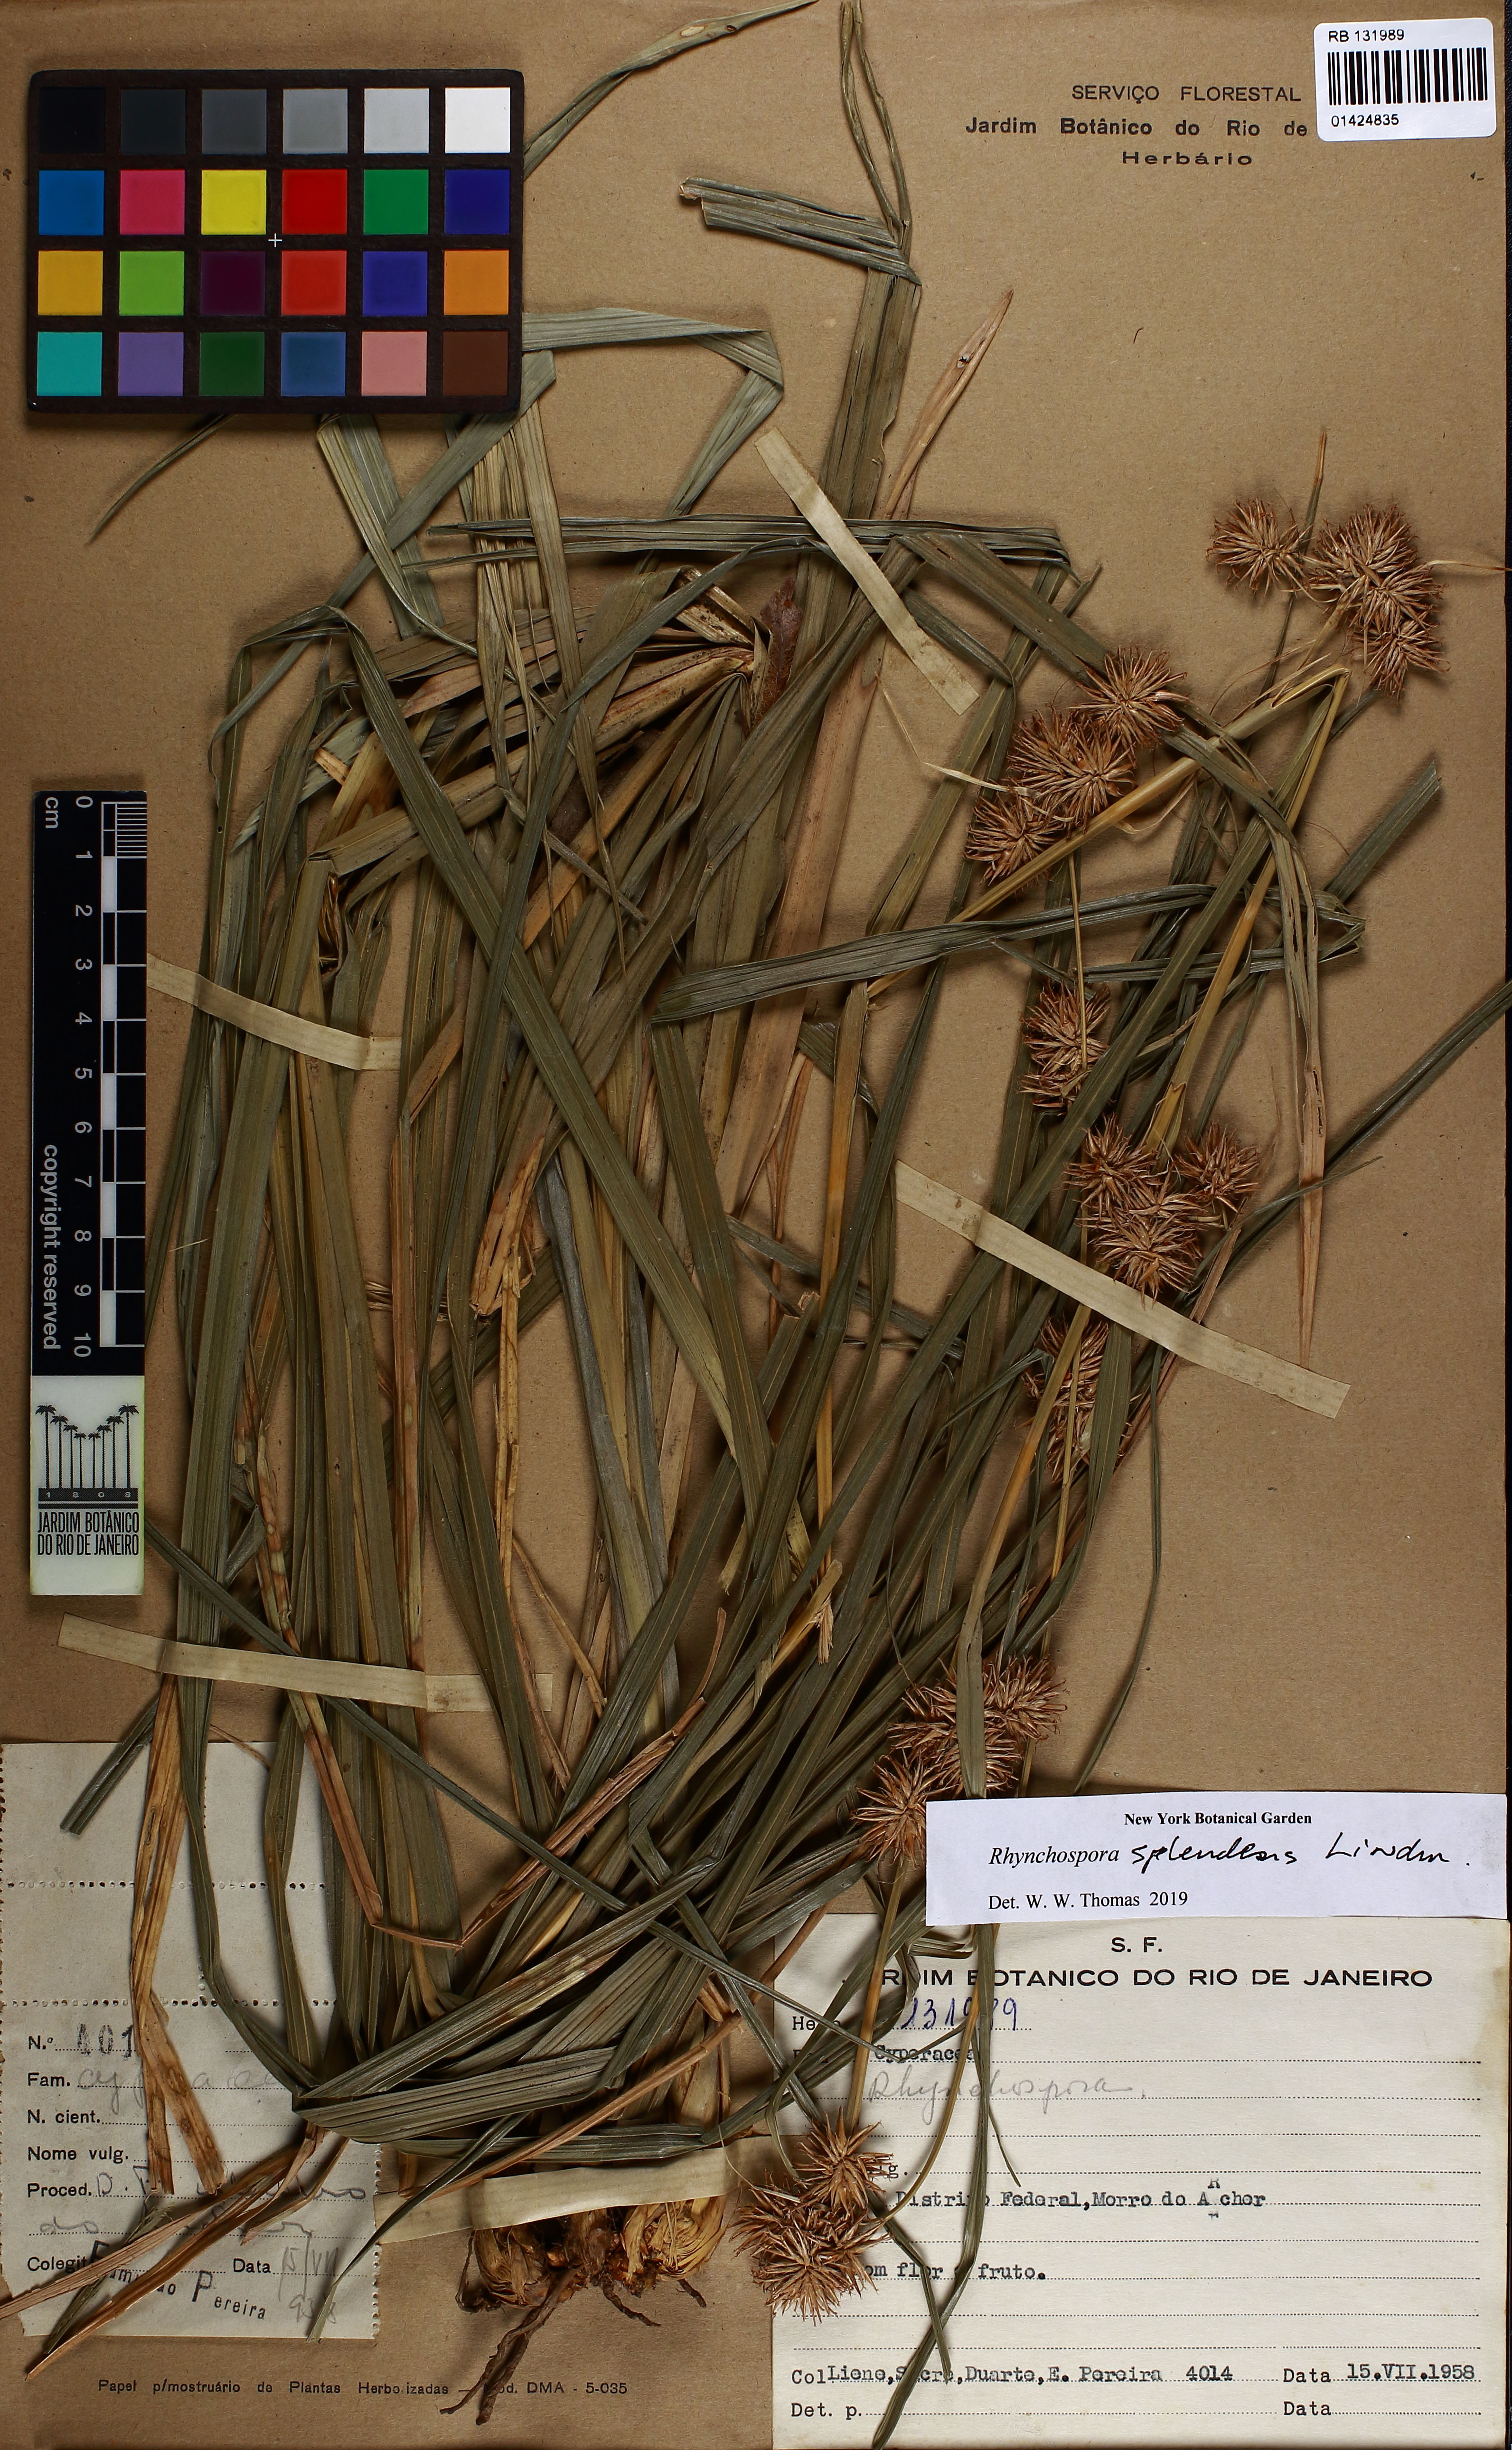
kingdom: Plantae
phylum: Tracheophyta
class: Liliopsida
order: Poales
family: Cyperaceae
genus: Rhynchospora
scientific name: Rhynchospora splendens
